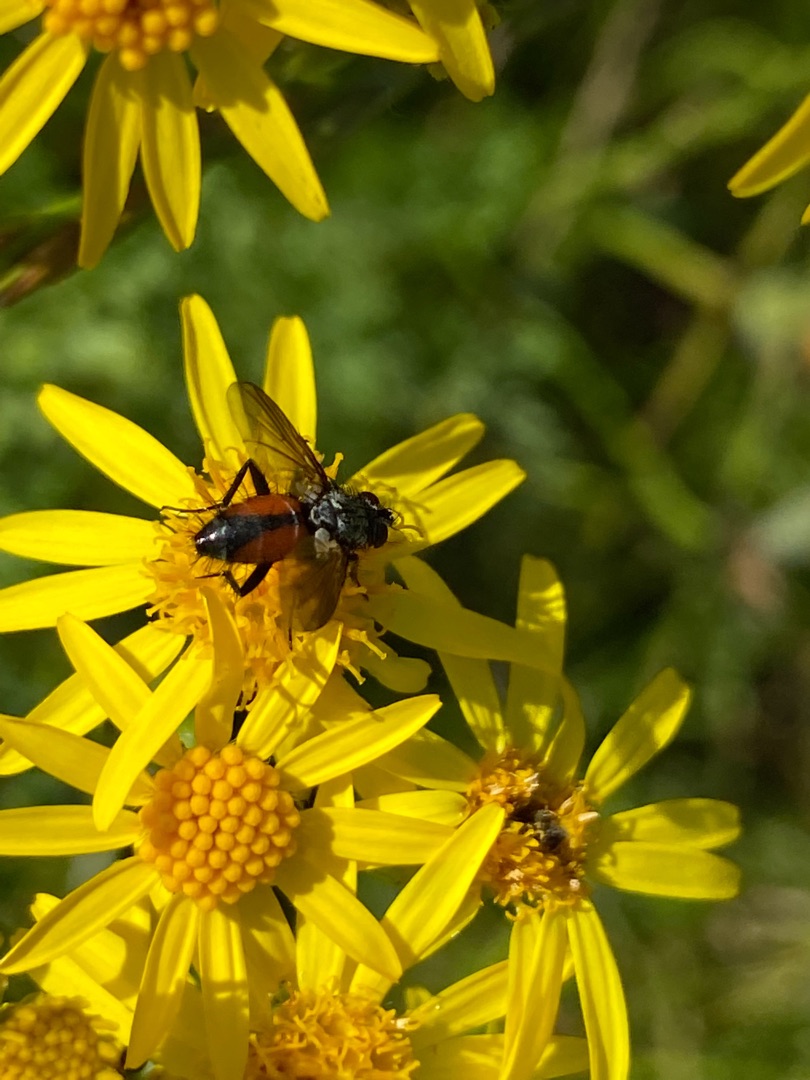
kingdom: Animalia
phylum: Arthropoda
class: Insecta
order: Diptera
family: Tachinidae
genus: Eriothrix
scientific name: Eriothrix rufomaculatus
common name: Rød snylteflue
